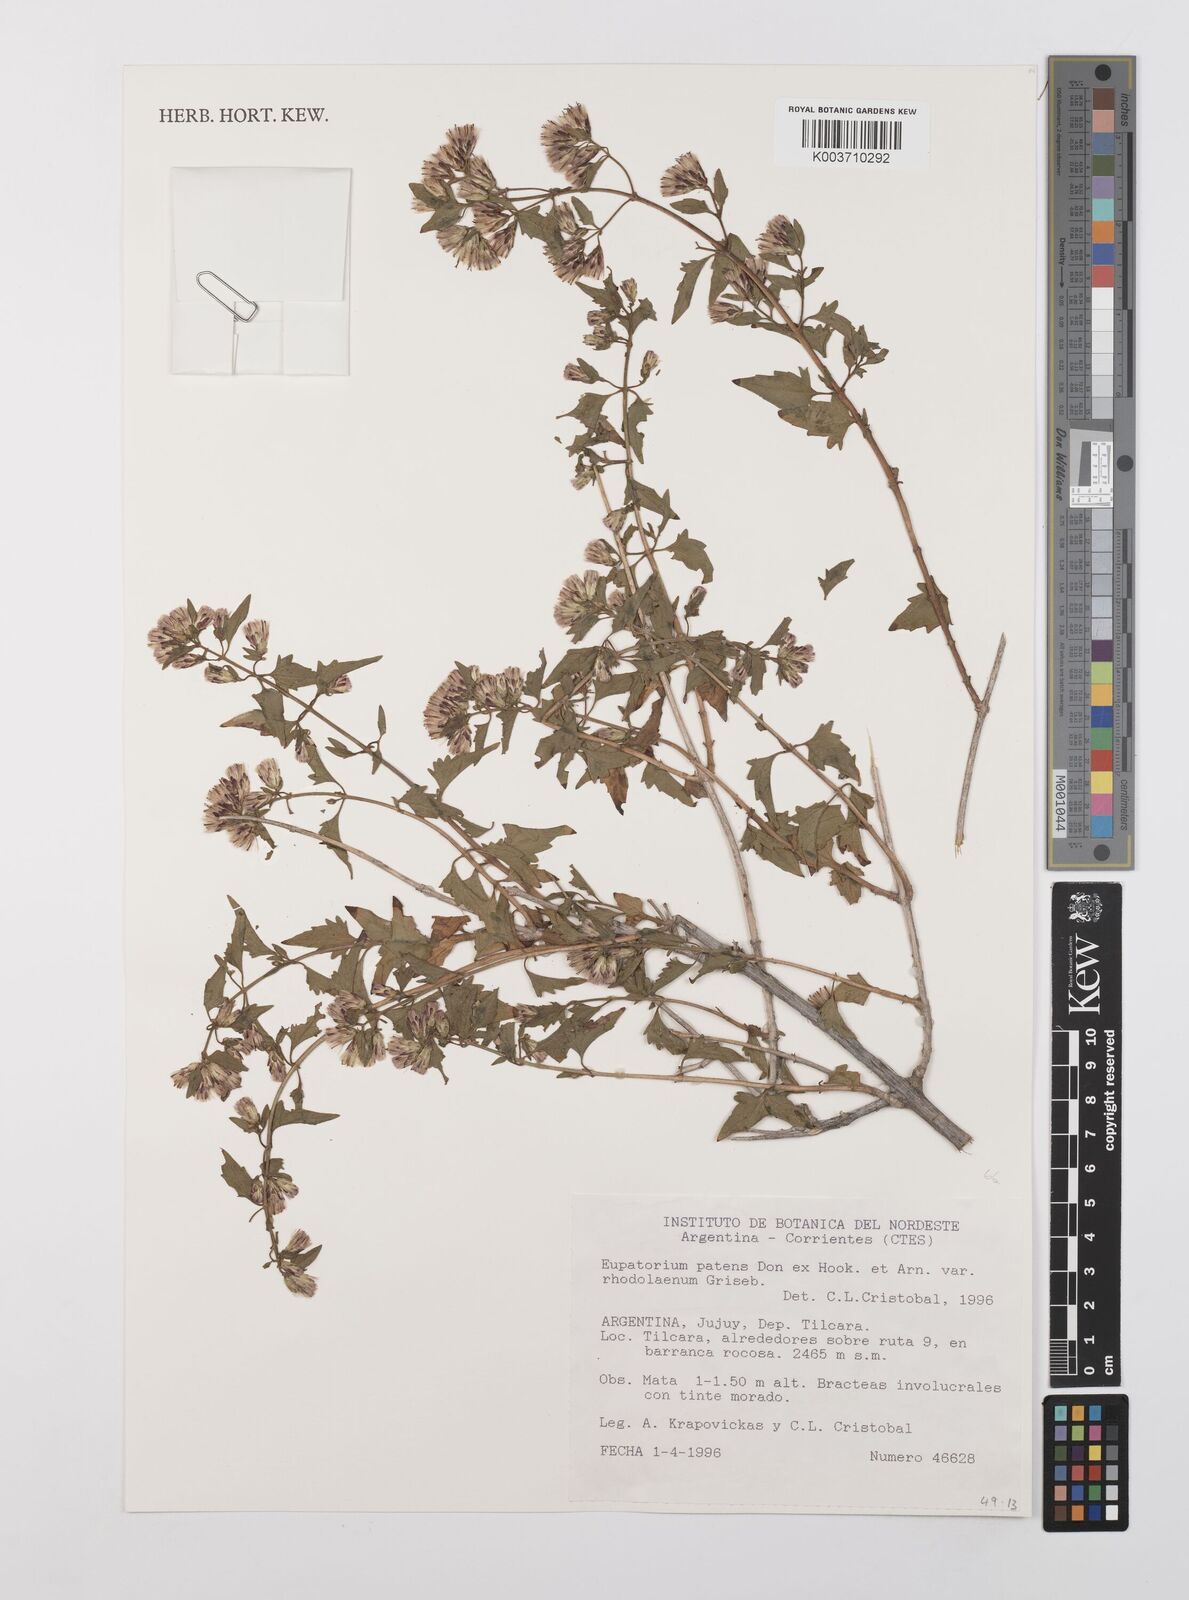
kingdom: Plantae
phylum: Tracheophyta
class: Magnoliopsida
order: Asterales
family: Asteraceae
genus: Austrobrickellia
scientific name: Austrobrickellia patens
